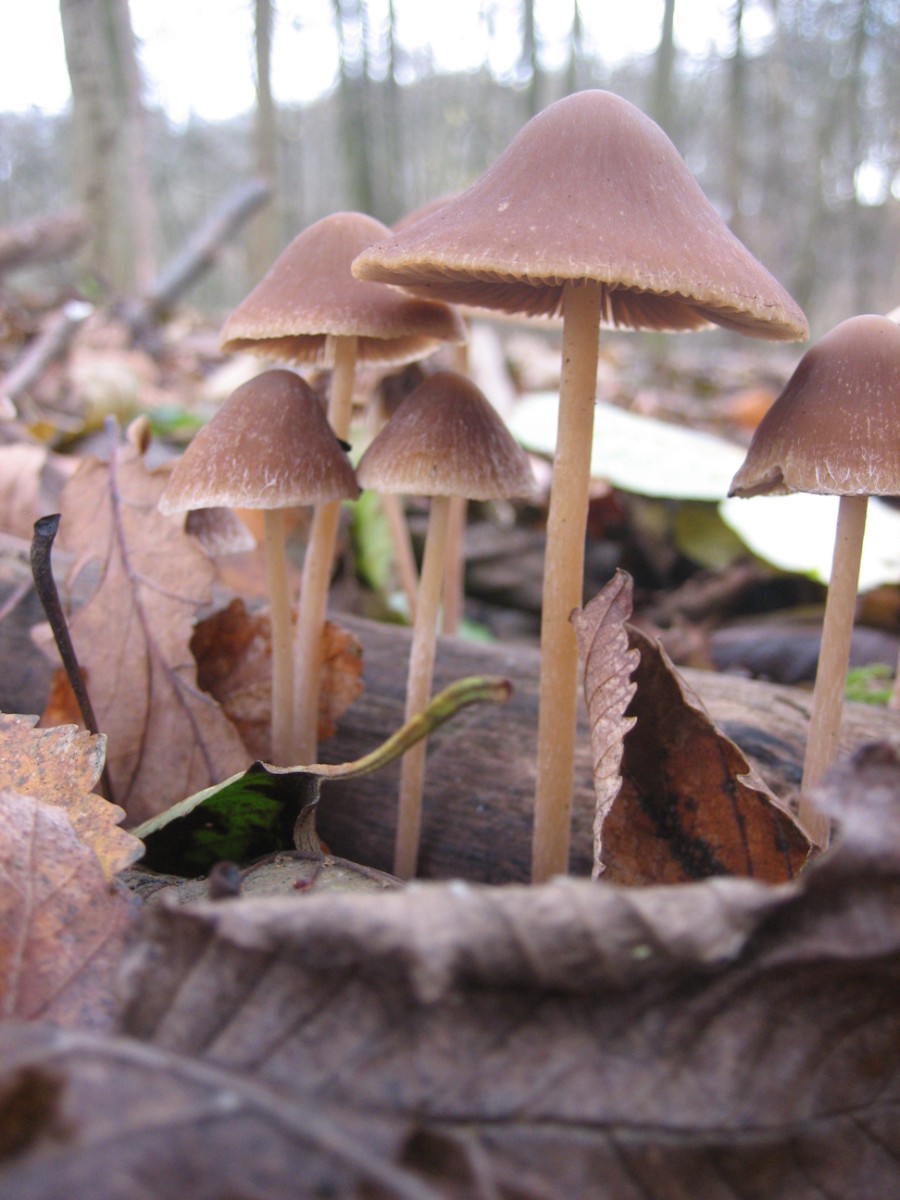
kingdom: Fungi
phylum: Basidiomycota
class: Agaricomycetes
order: Agaricales
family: Psathyrellaceae
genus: Psathyrella
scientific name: Psathyrella
